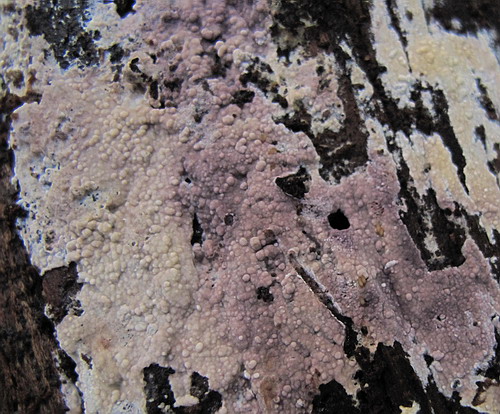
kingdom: Fungi
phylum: Basidiomycota
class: Agaricomycetes
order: Polyporales
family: Hyphodermataceae
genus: Hyphoderma
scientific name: Hyphoderma roseocremeum
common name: lillaplettet kalkskind
